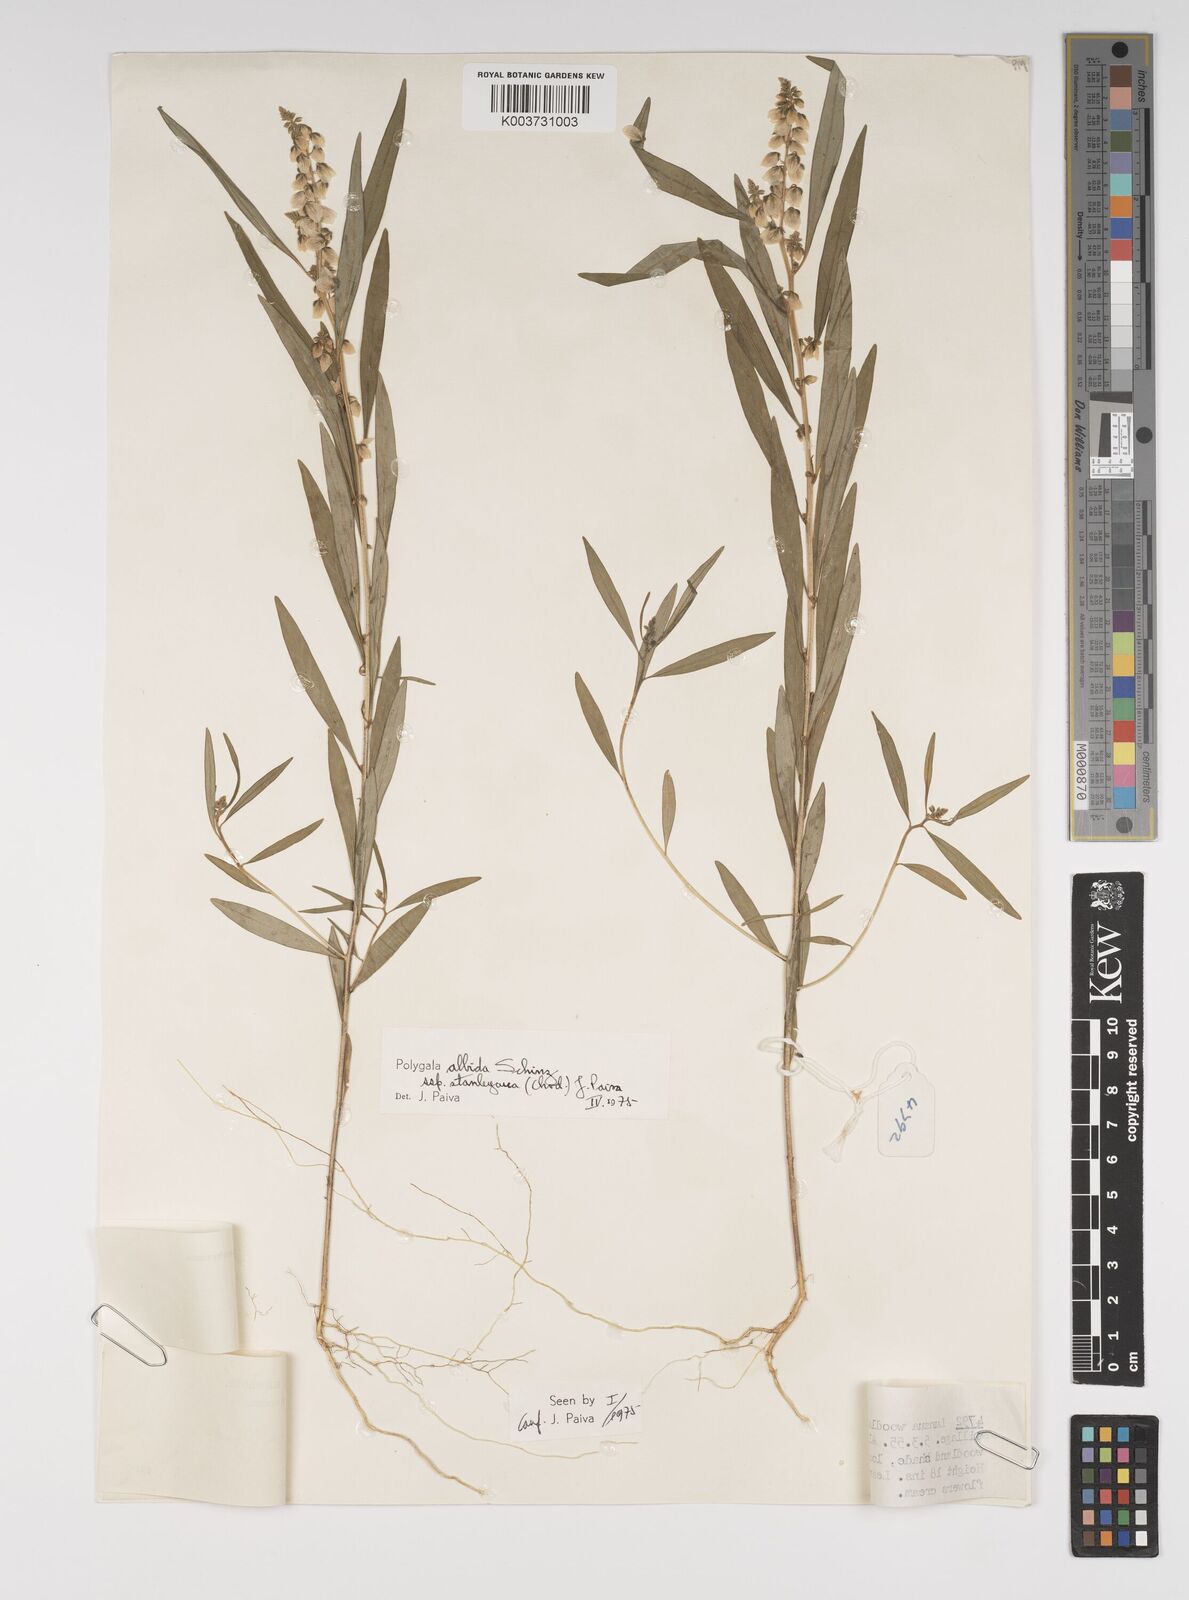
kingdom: Plantae
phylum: Tracheophyta
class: Magnoliopsida
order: Fabales
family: Polygalaceae
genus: Polygala
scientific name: Polygala albida
